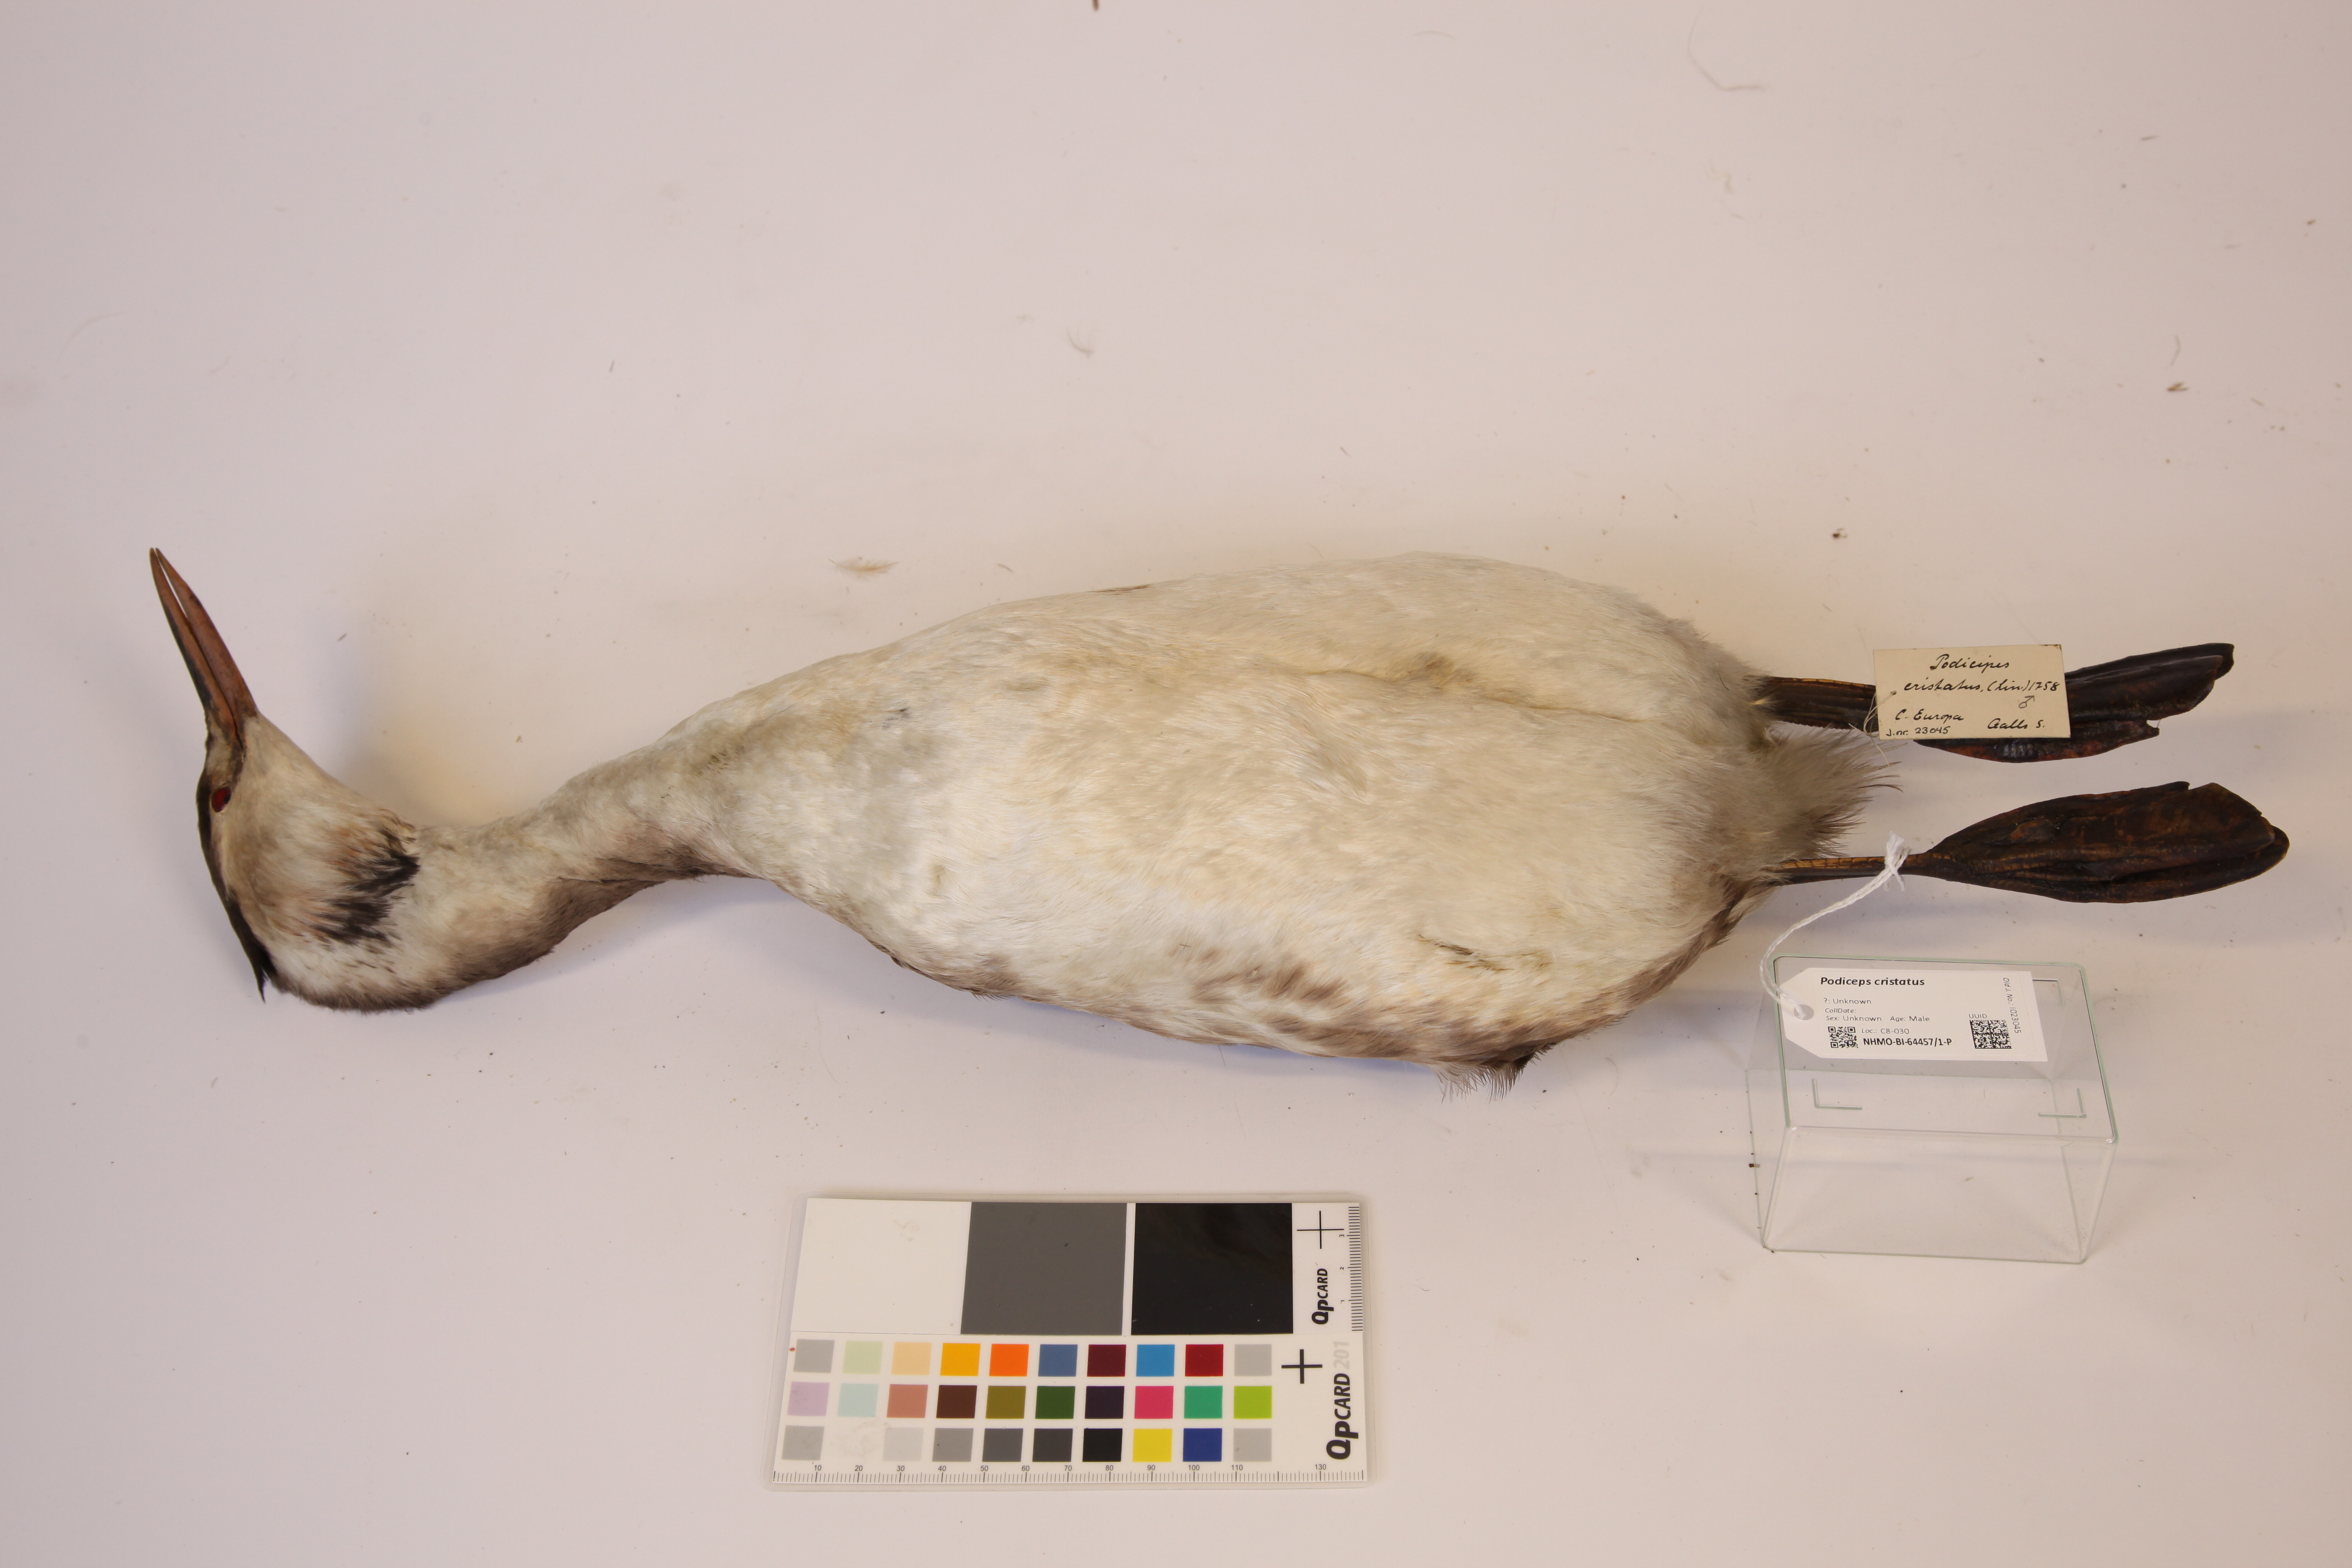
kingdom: Animalia
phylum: Chordata
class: Aves
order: Podicipediformes
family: Podicipedidae
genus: Podiceps
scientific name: Podiceps cristatus
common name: Great crested grebe
